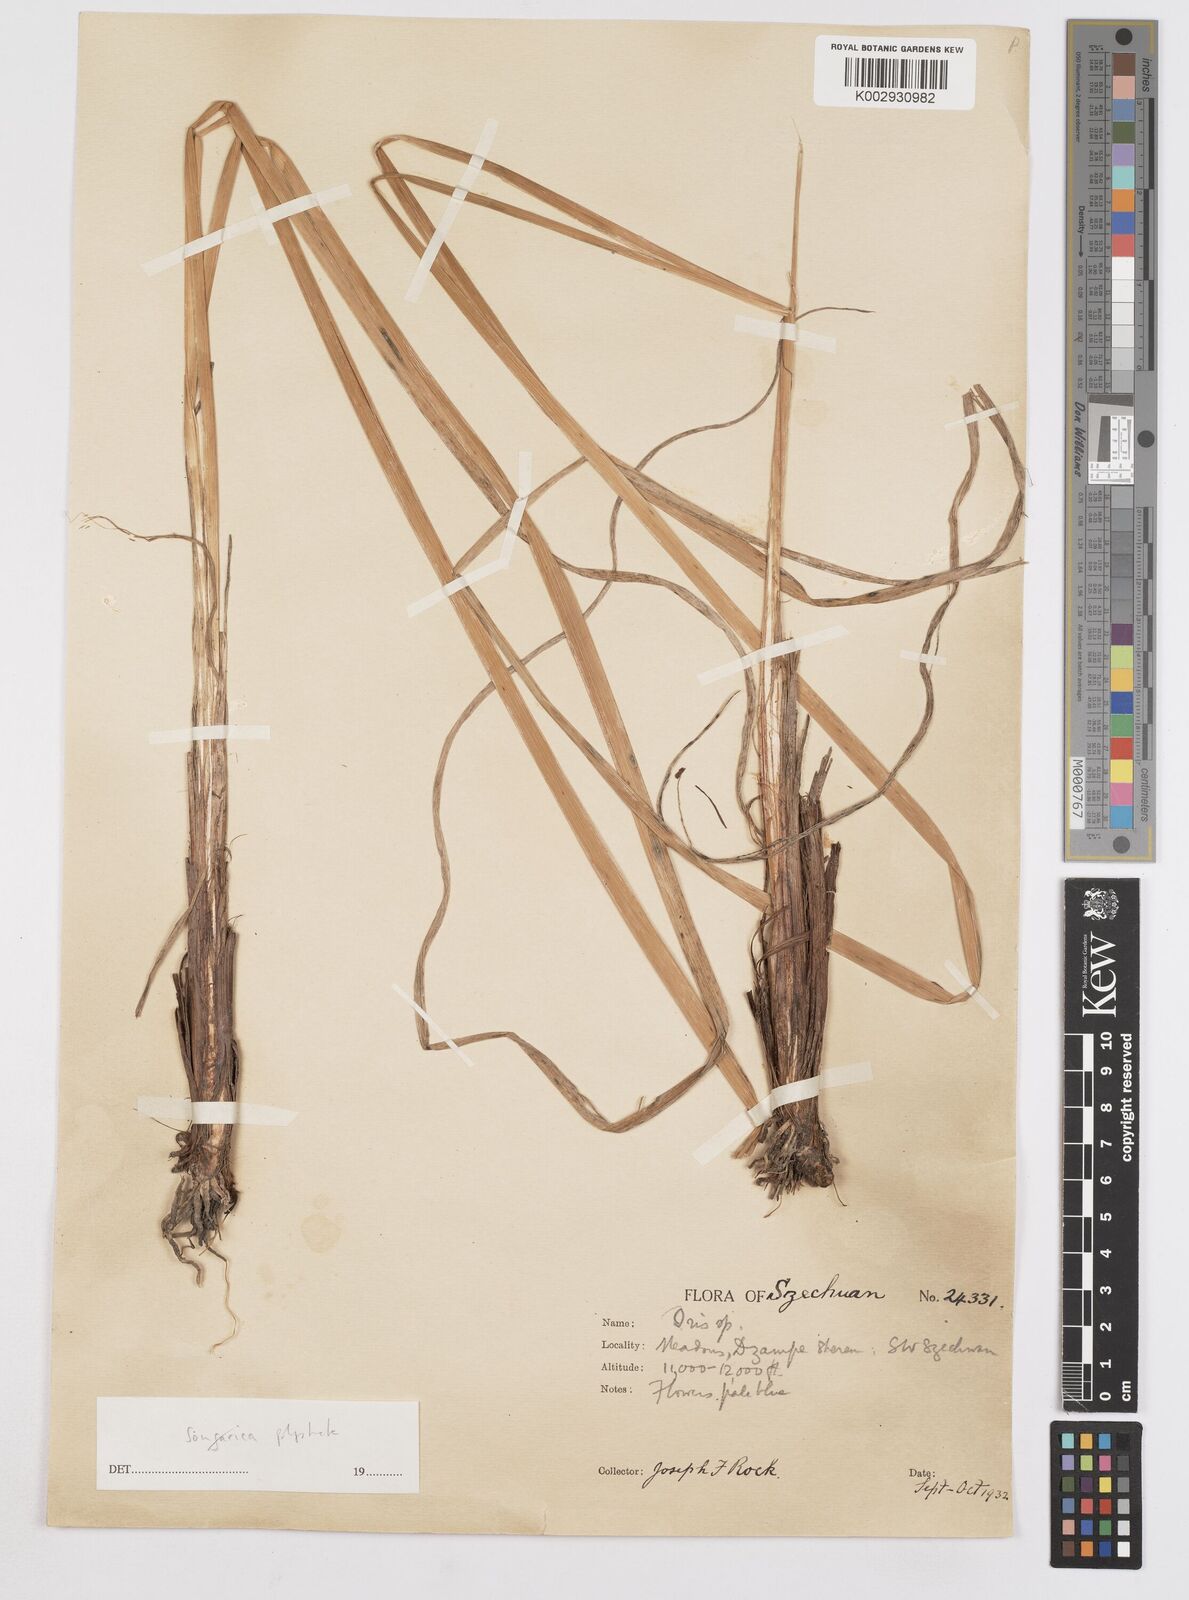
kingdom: Plantae
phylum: Tracheophyta
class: Liliopsida
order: Asparagales
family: Iridaceae
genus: Iris
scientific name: Iris farreri
